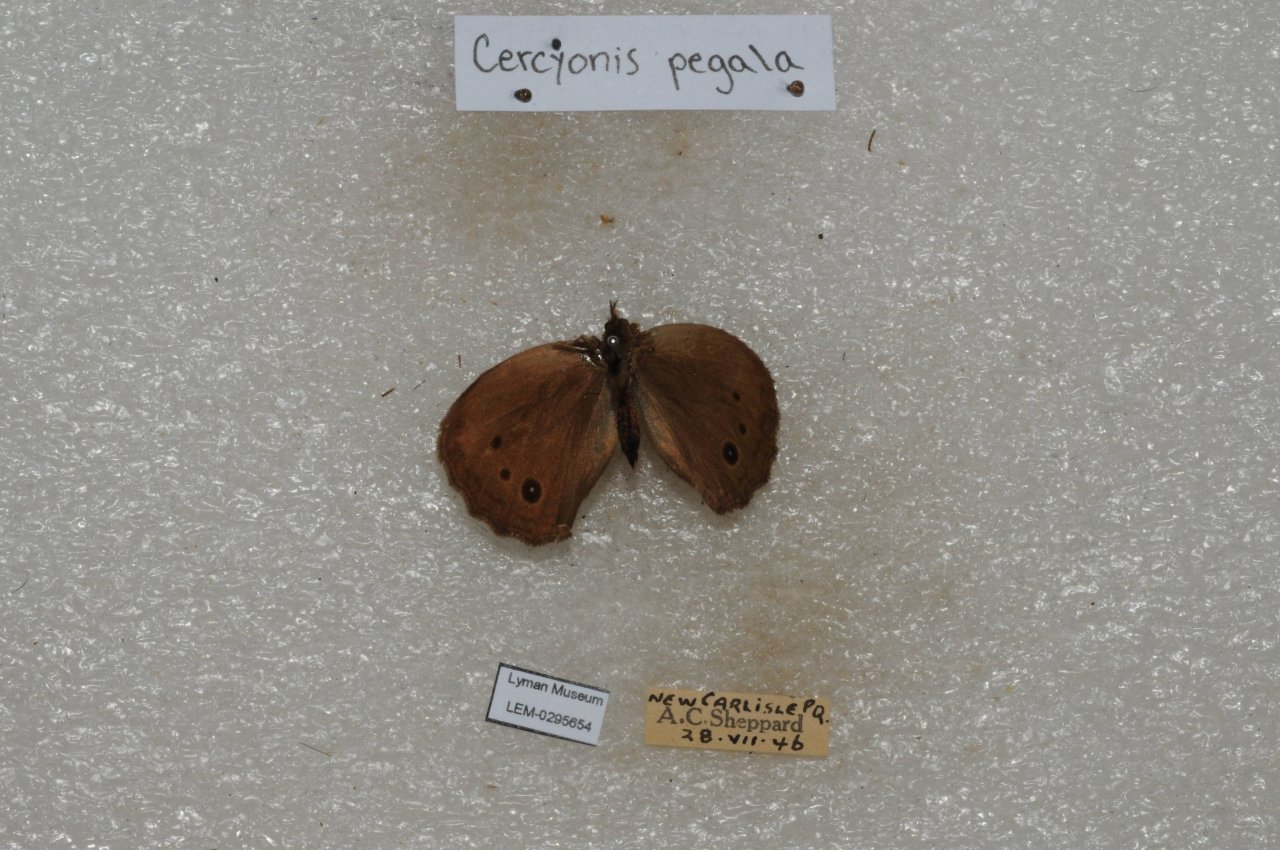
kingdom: Animalia
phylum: Arthropoda
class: Insecta
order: Lepidoptera
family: Nymphalidae
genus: Cercyonis
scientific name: Cercyonis pegala
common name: Common Wood-Nymph
